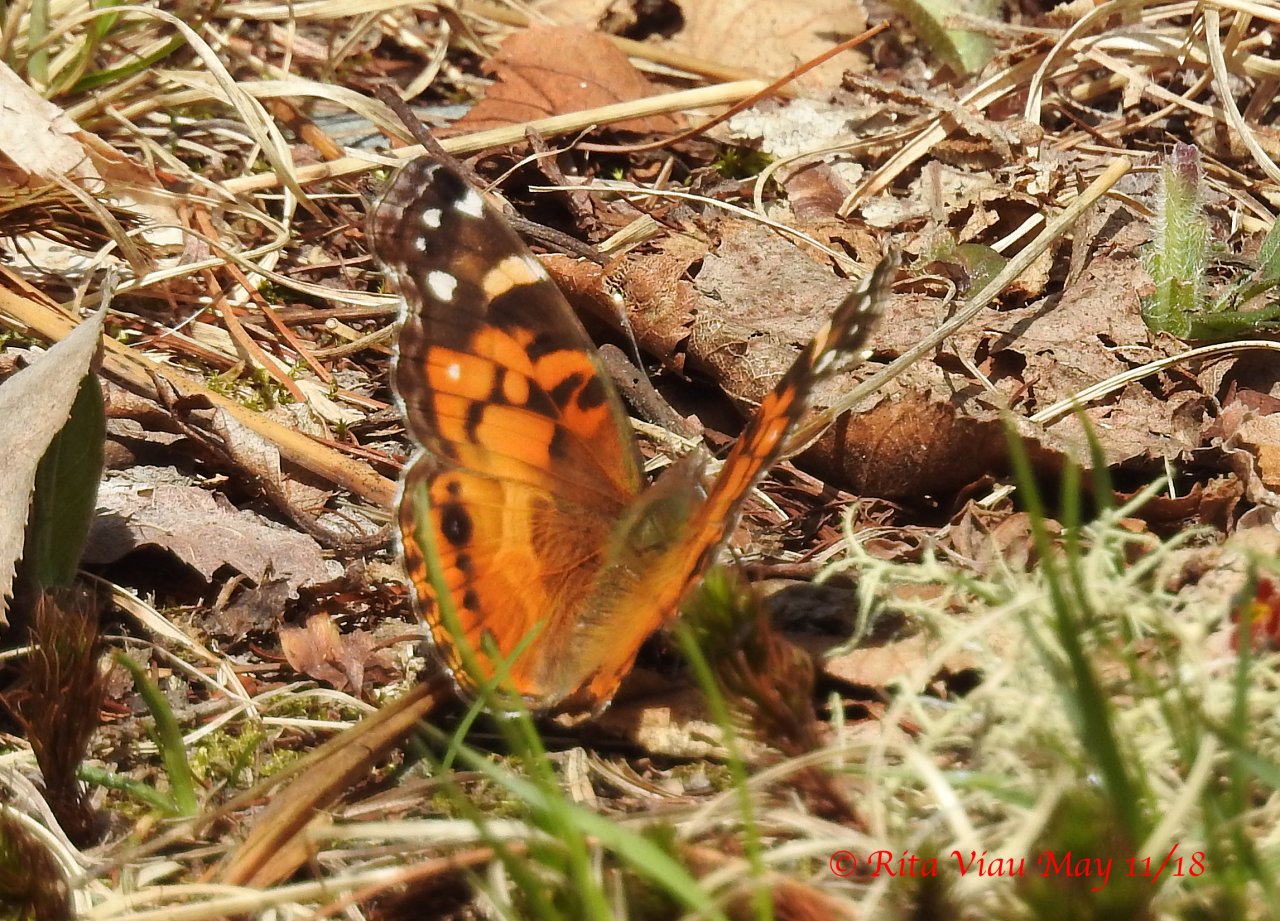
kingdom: Animalia
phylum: Arthropoda
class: Insecta
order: Lepidoptera
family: Nymphalidae
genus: Vanessa
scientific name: Vanessa virginiensis
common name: American Lady
